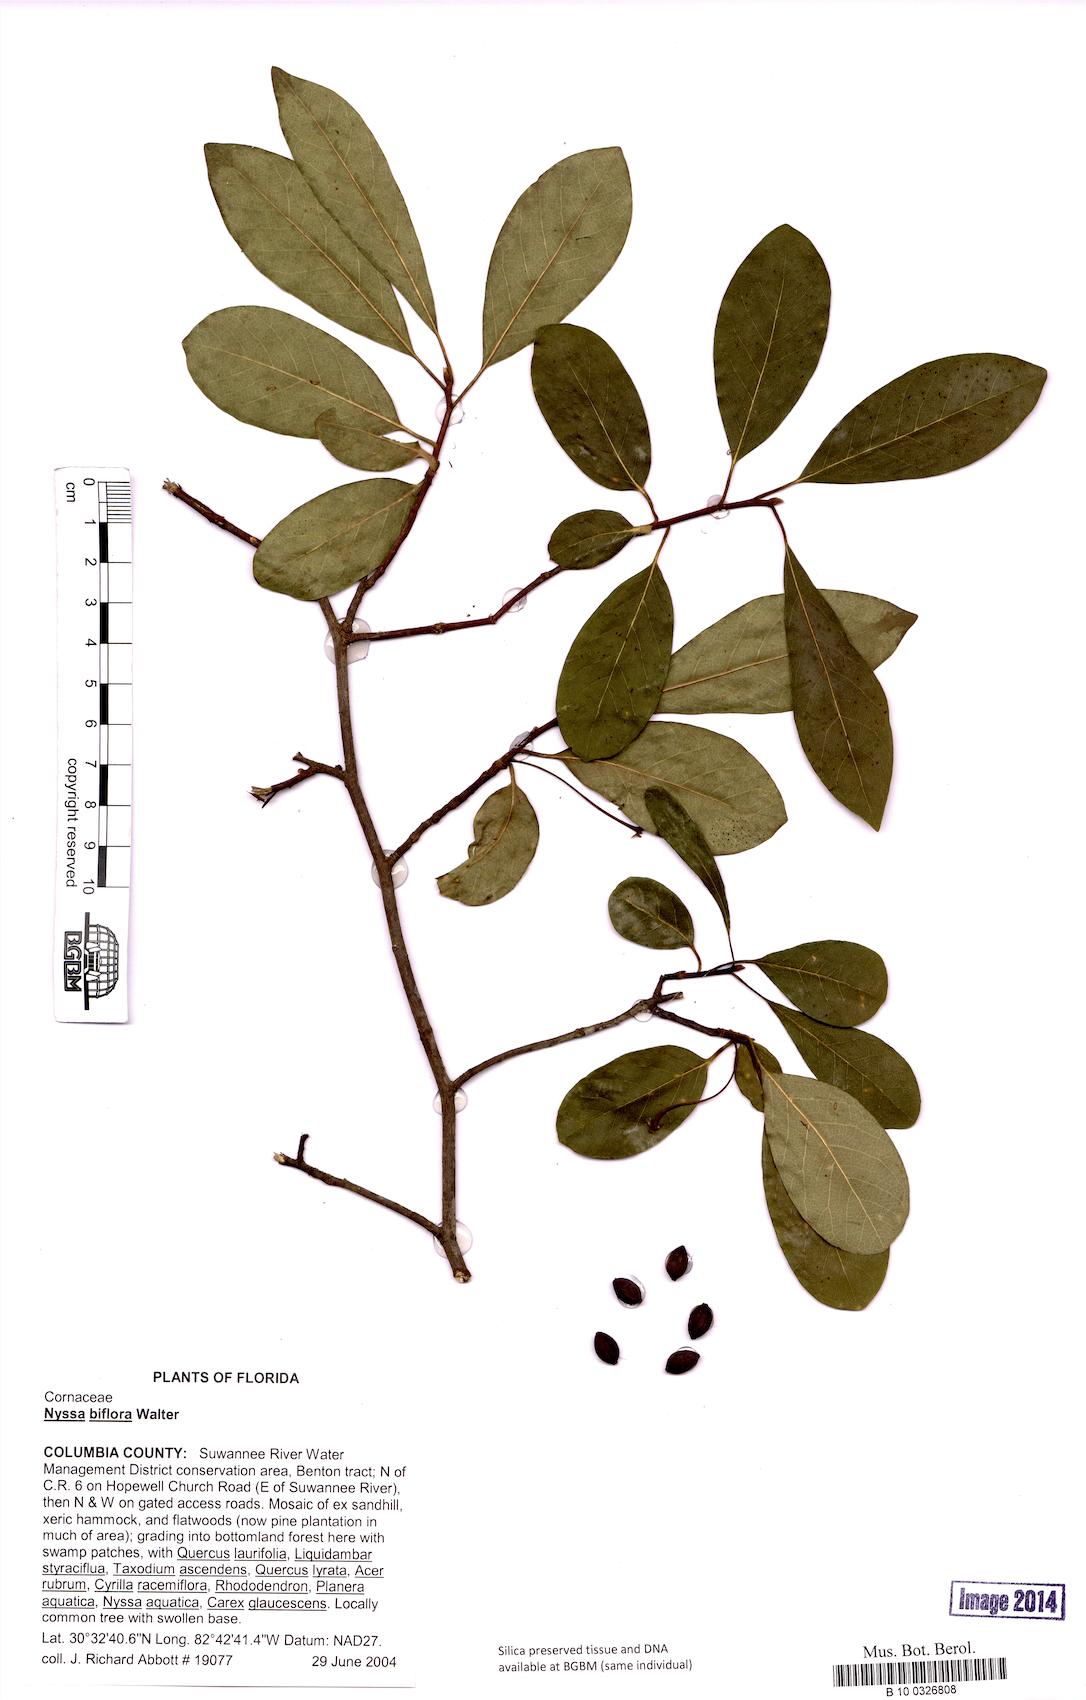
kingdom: Plantae
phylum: Tracheophyta
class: Magnoliopsida
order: Cornales
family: Nyssaceae
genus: Nyssa
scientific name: Nyssa biflora
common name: Swamp blackgum
